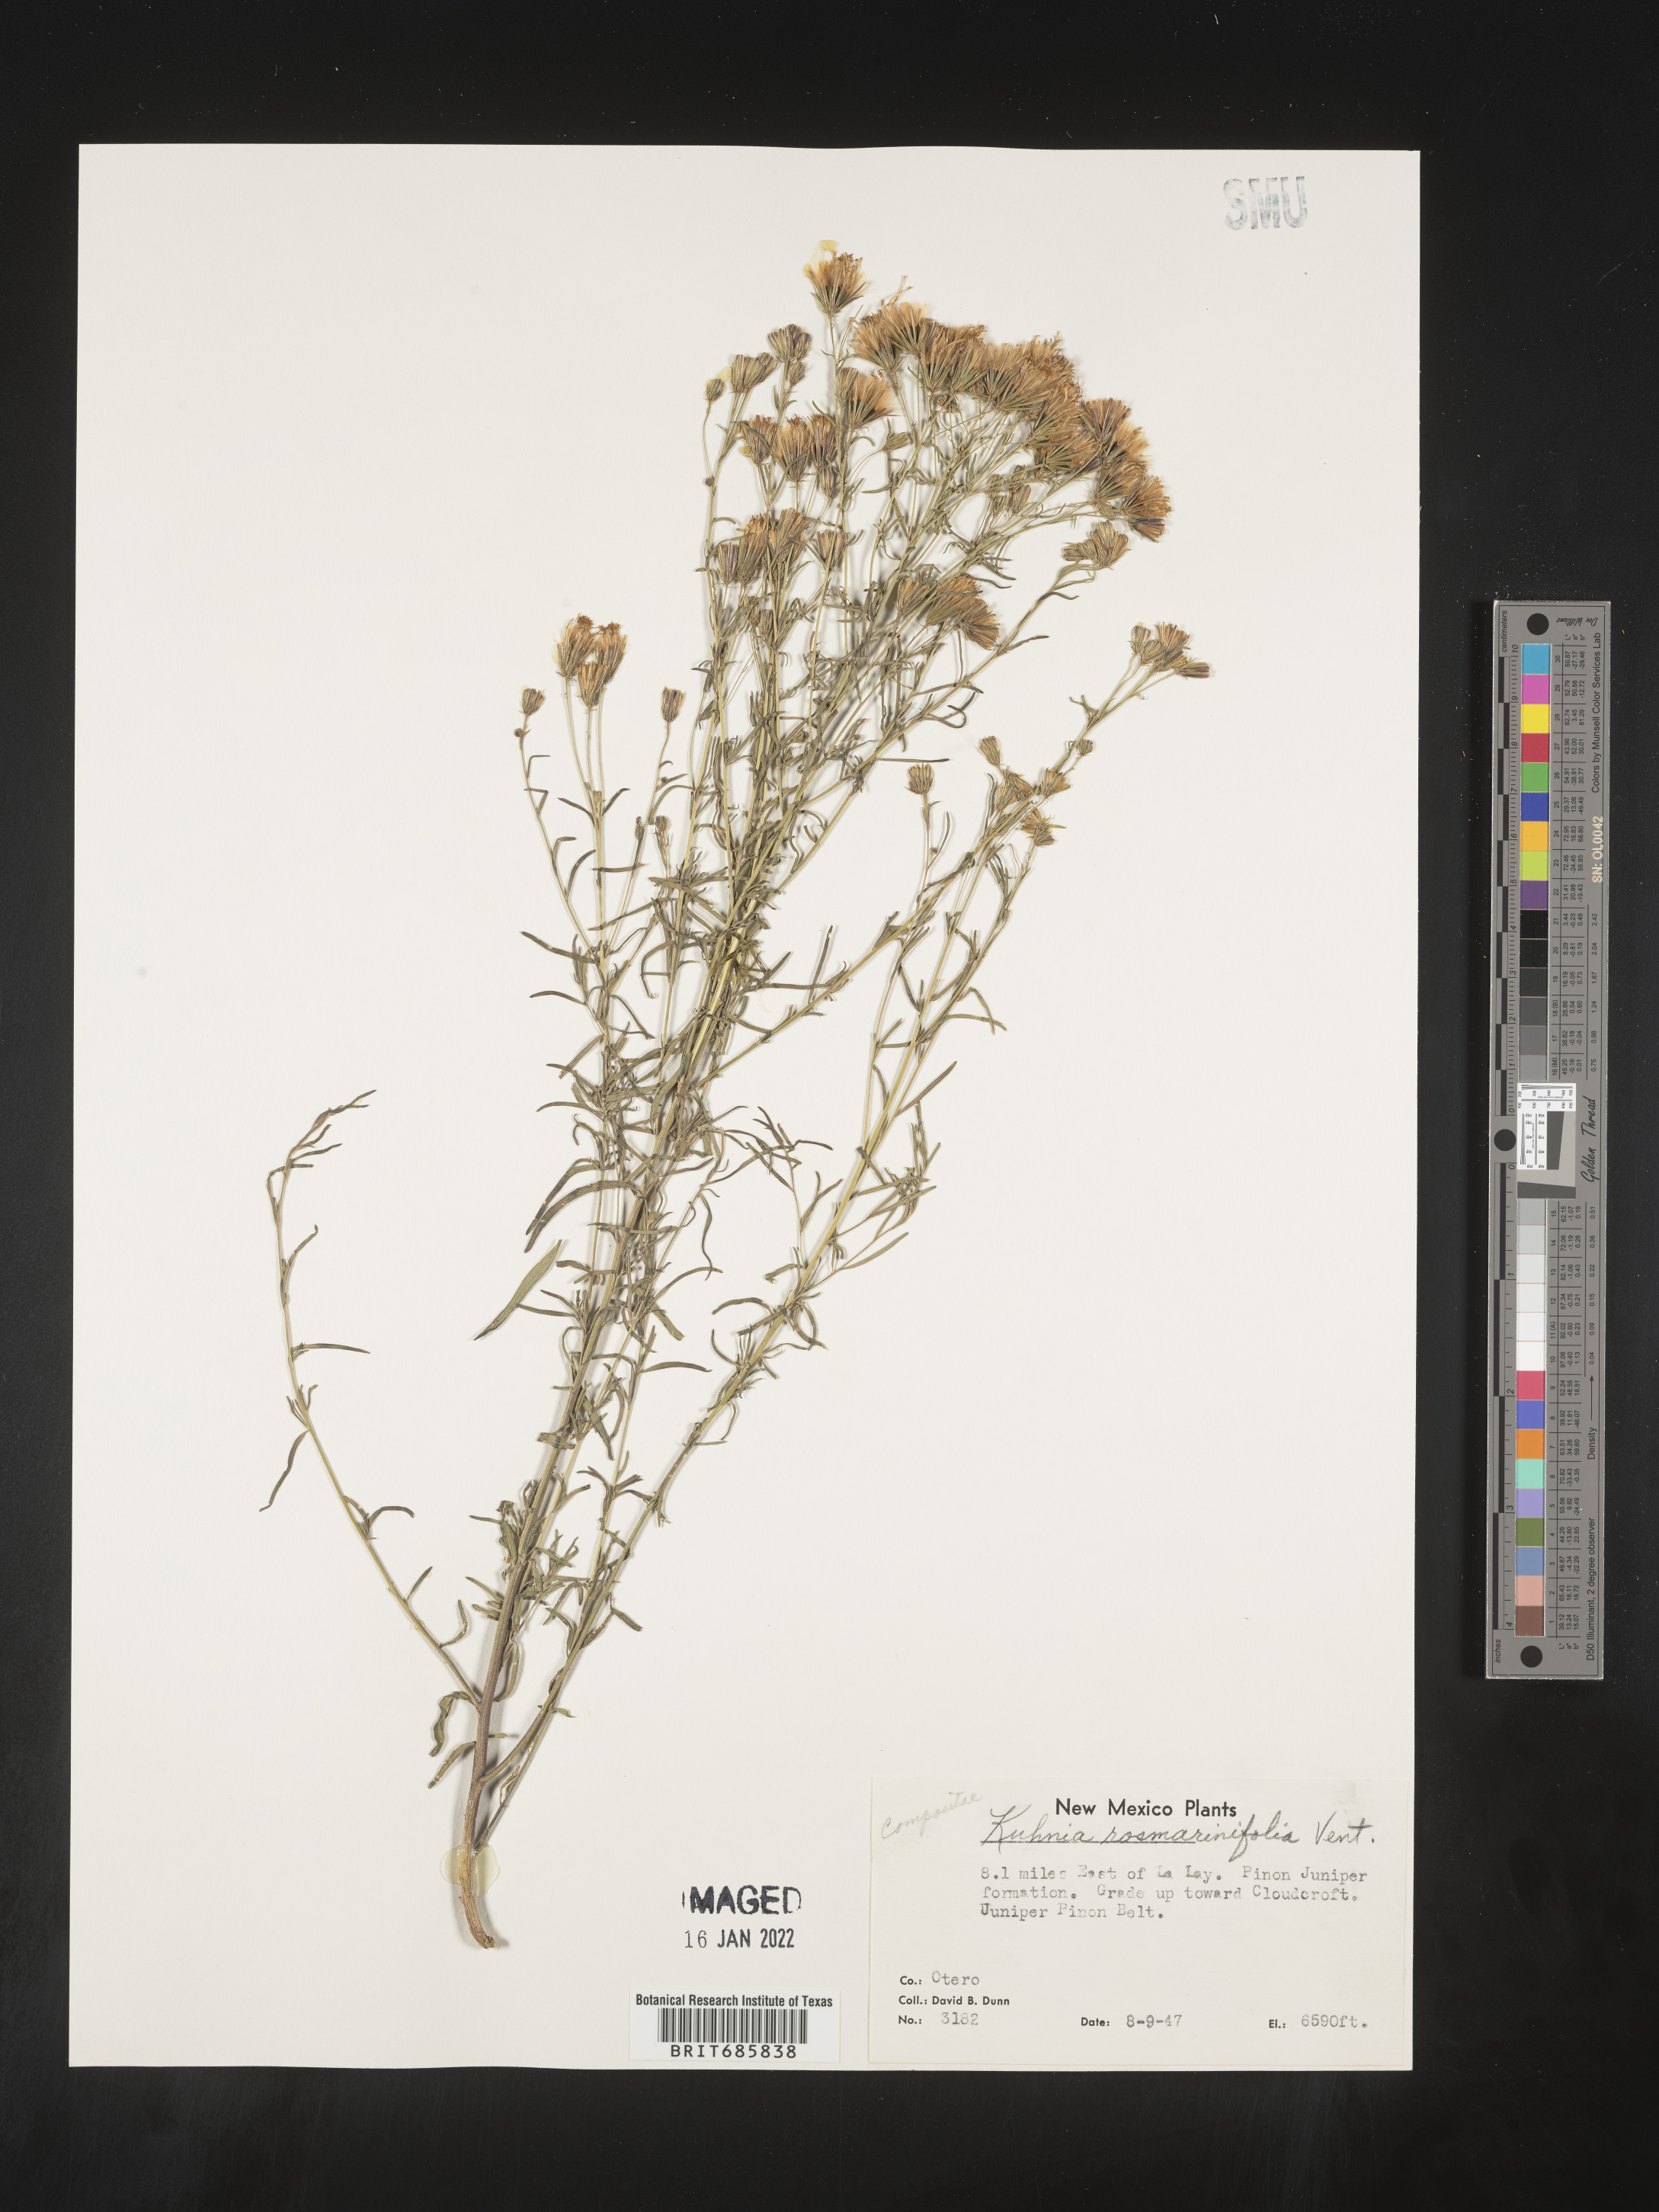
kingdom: Plantae
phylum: Tracheophyta
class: Magnoliopsida
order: Asterales
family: Asteraceae
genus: Brickellia
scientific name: Brickellia leptophylla
